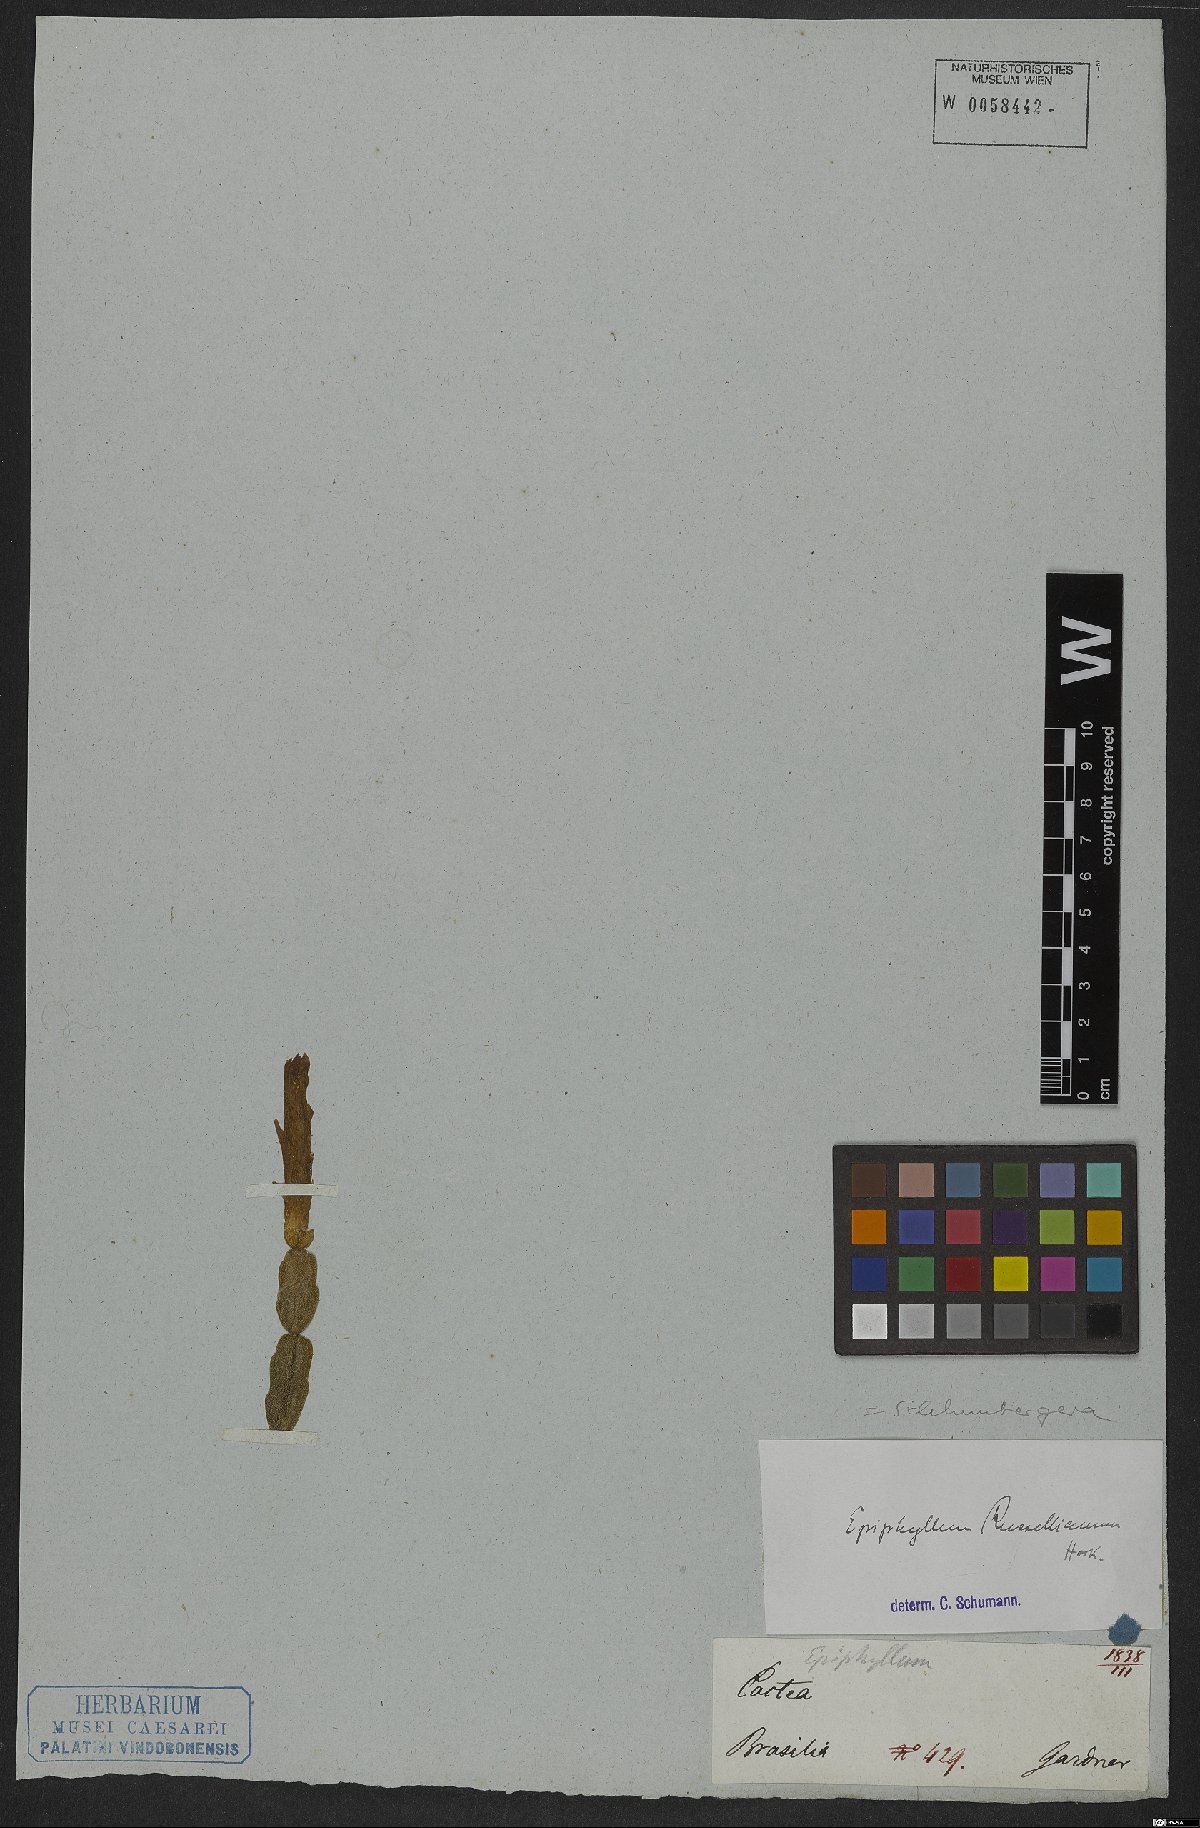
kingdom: Plantae
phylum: Tracheophyta
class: Magnoliopsida
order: Caryophyllales
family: Cactaceae
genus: Schlumbergera
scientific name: Schlumbergera russeliana
